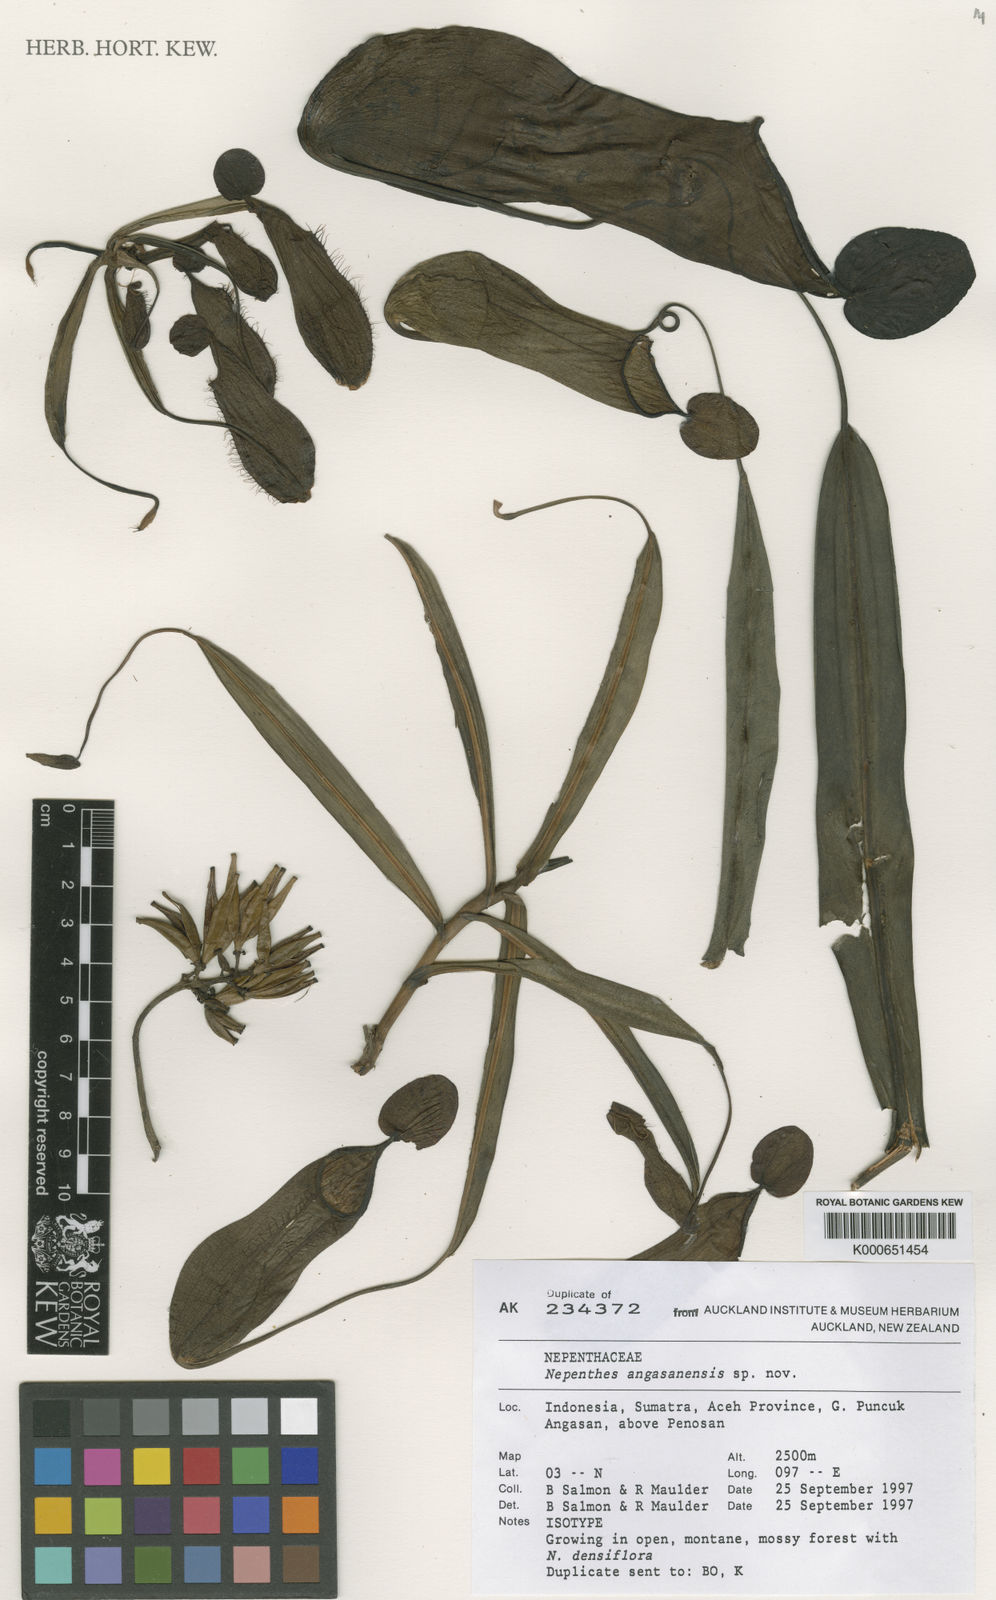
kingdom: Plantae
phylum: Tracheophyta
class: Magnoliopsida
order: Caryophyllales
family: Nepenthaceae
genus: Nepenthes
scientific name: Nepenthes
